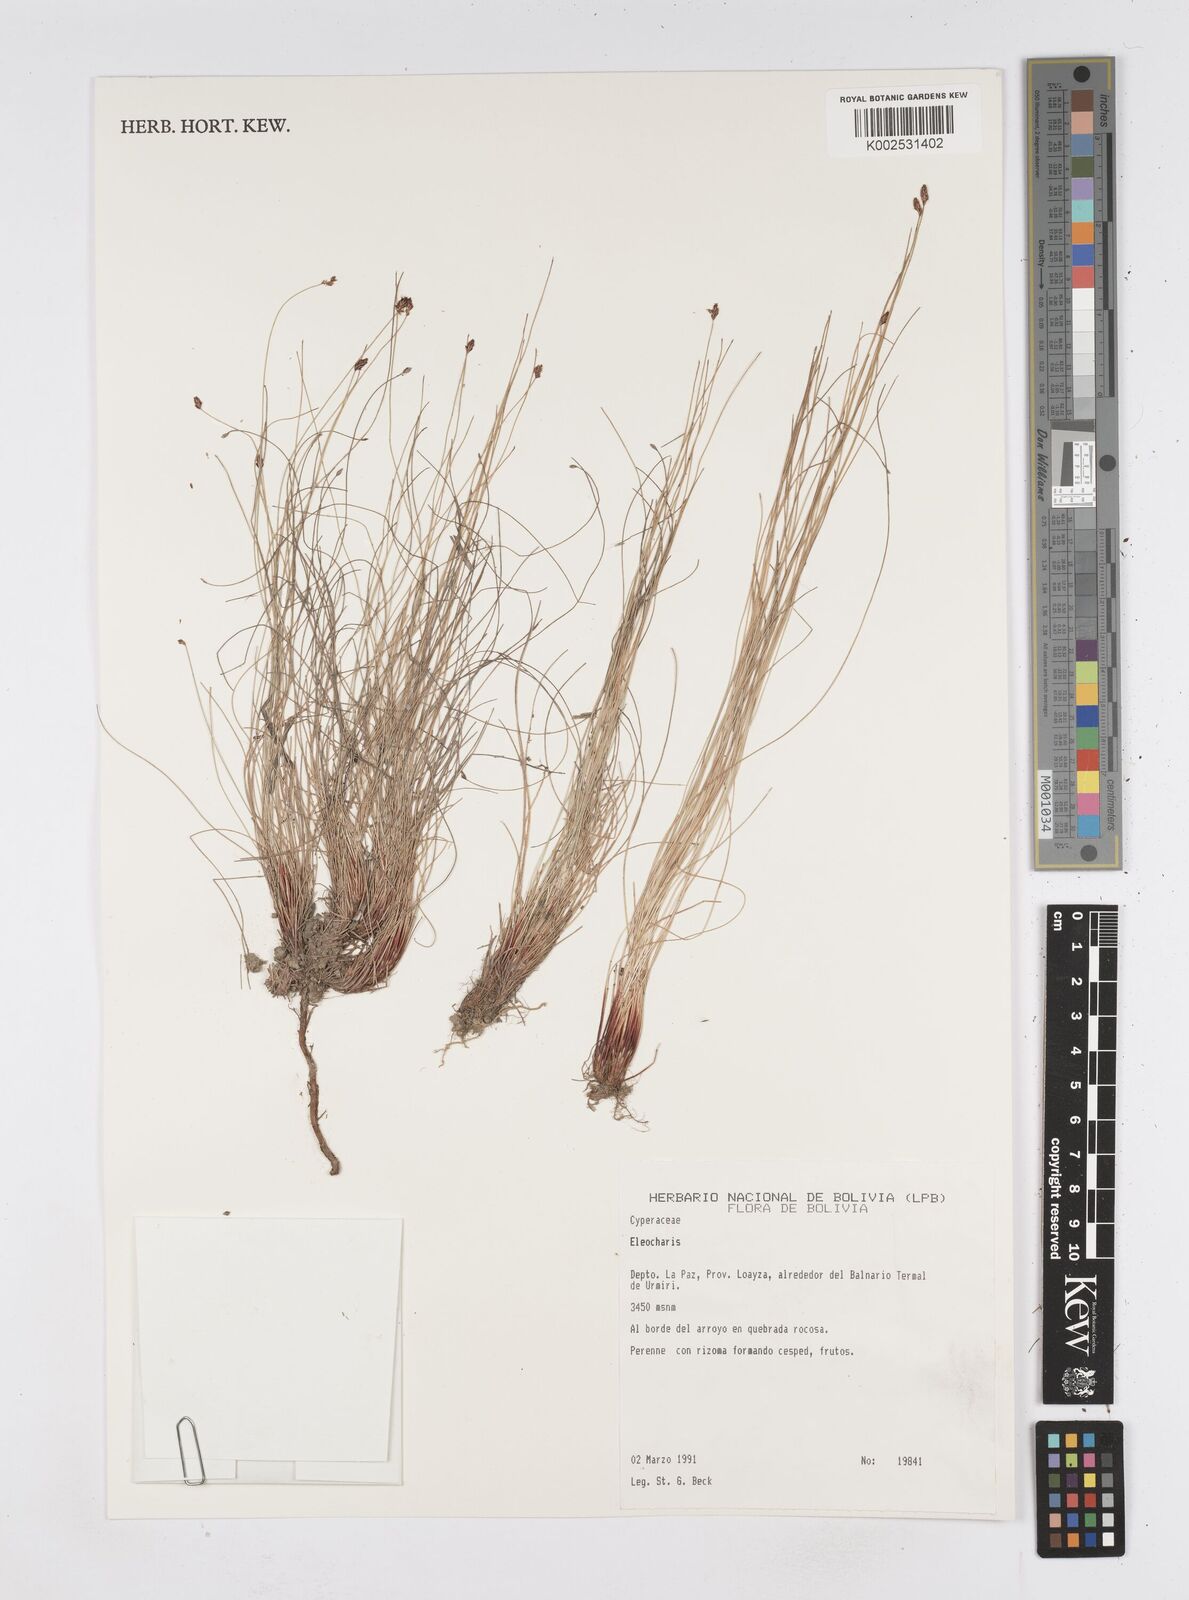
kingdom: Plantae
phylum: Tracheophyta
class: Liliopsida
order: Poales
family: Cyperaceae
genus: Eleocharis
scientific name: Eleocharis
